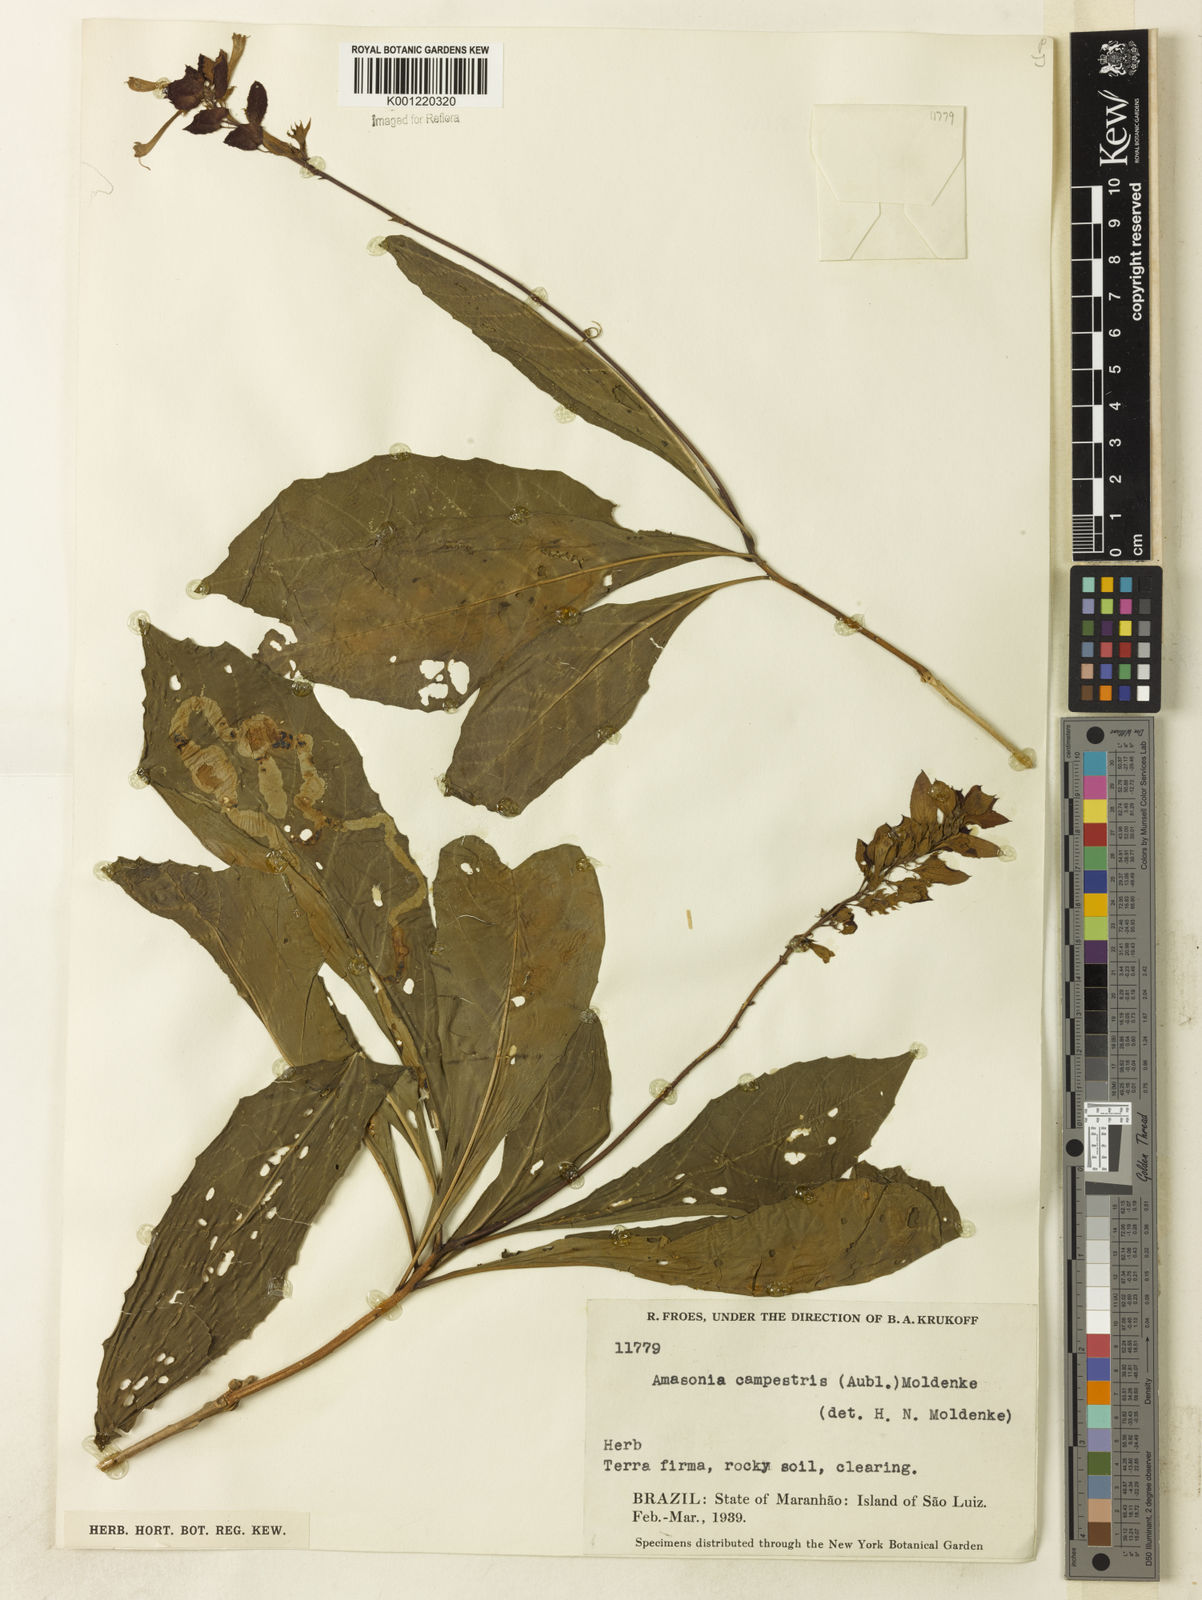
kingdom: Plantae
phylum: Tracheophyta
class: Magnoliopsida
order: Lamiales
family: Lamiaceae
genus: Amasonia
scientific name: Amasonia campestris
